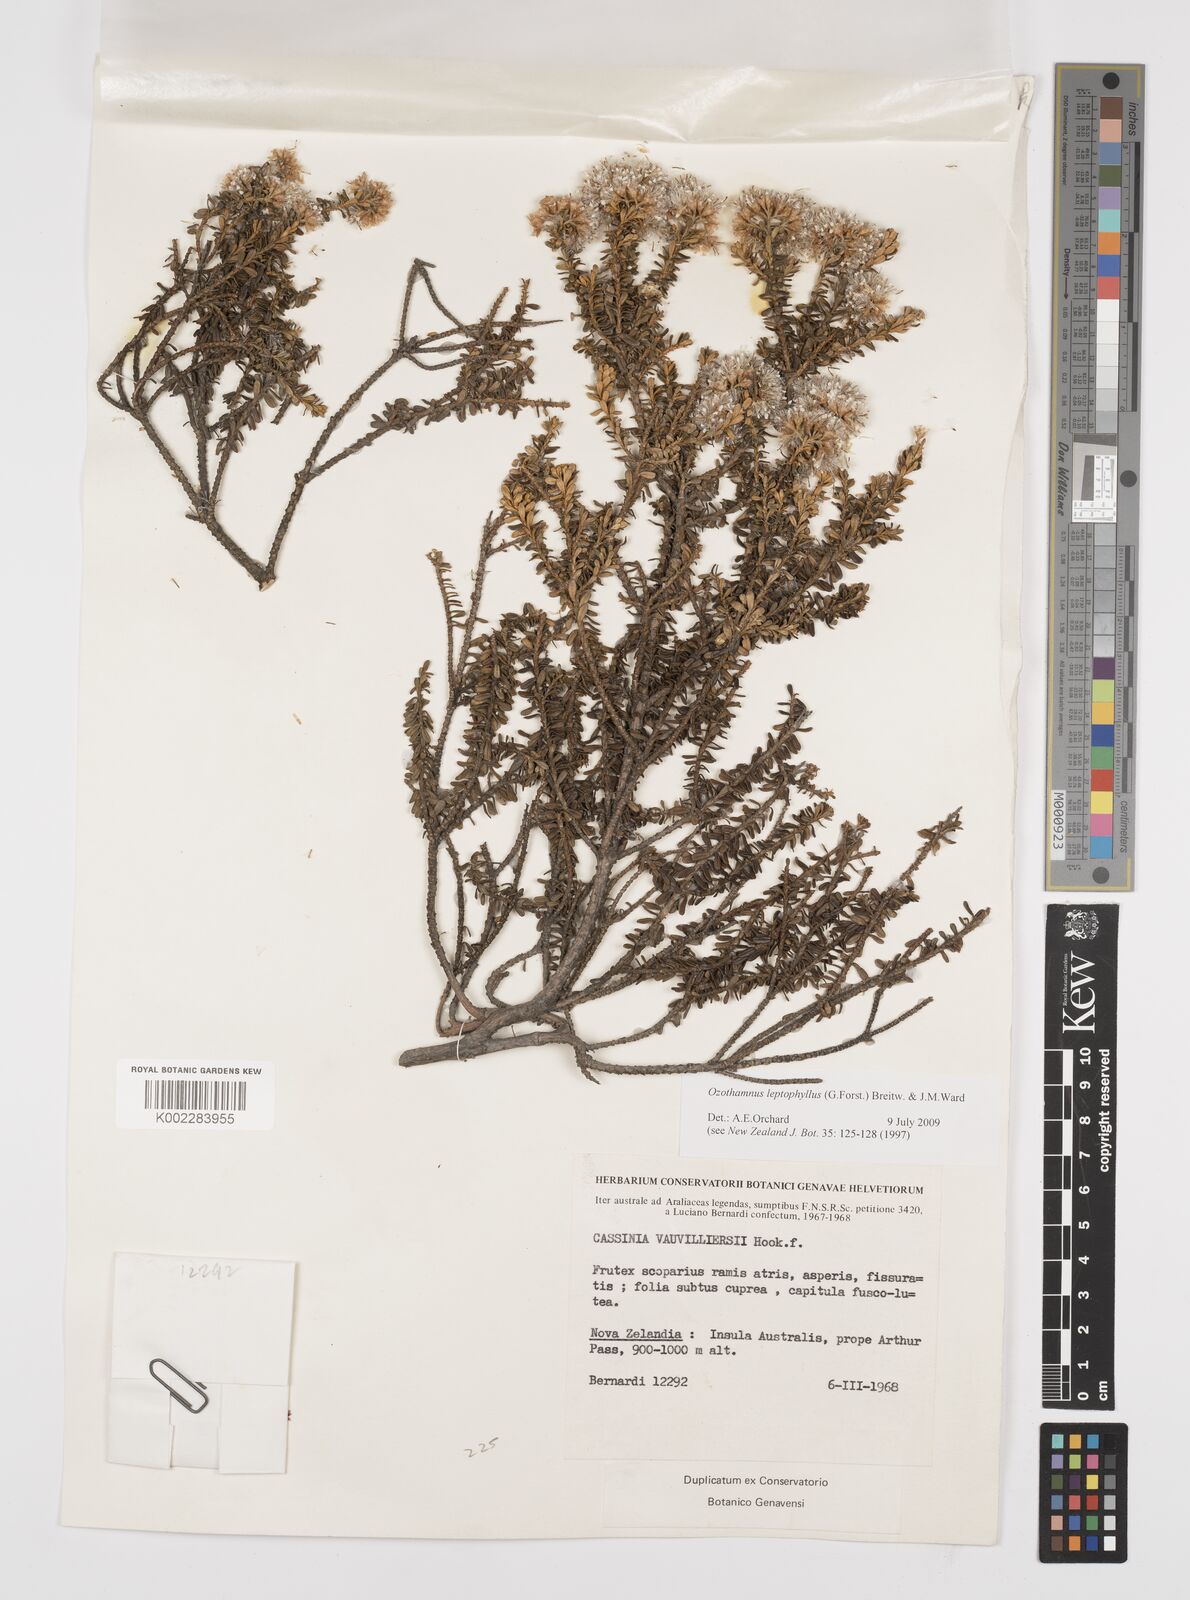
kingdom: Plantae
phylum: Tracheophyta
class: Magnoliopsida
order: Asterales
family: Asteraceae
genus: Ozothamnus
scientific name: Ozothamnus leptophyllus
